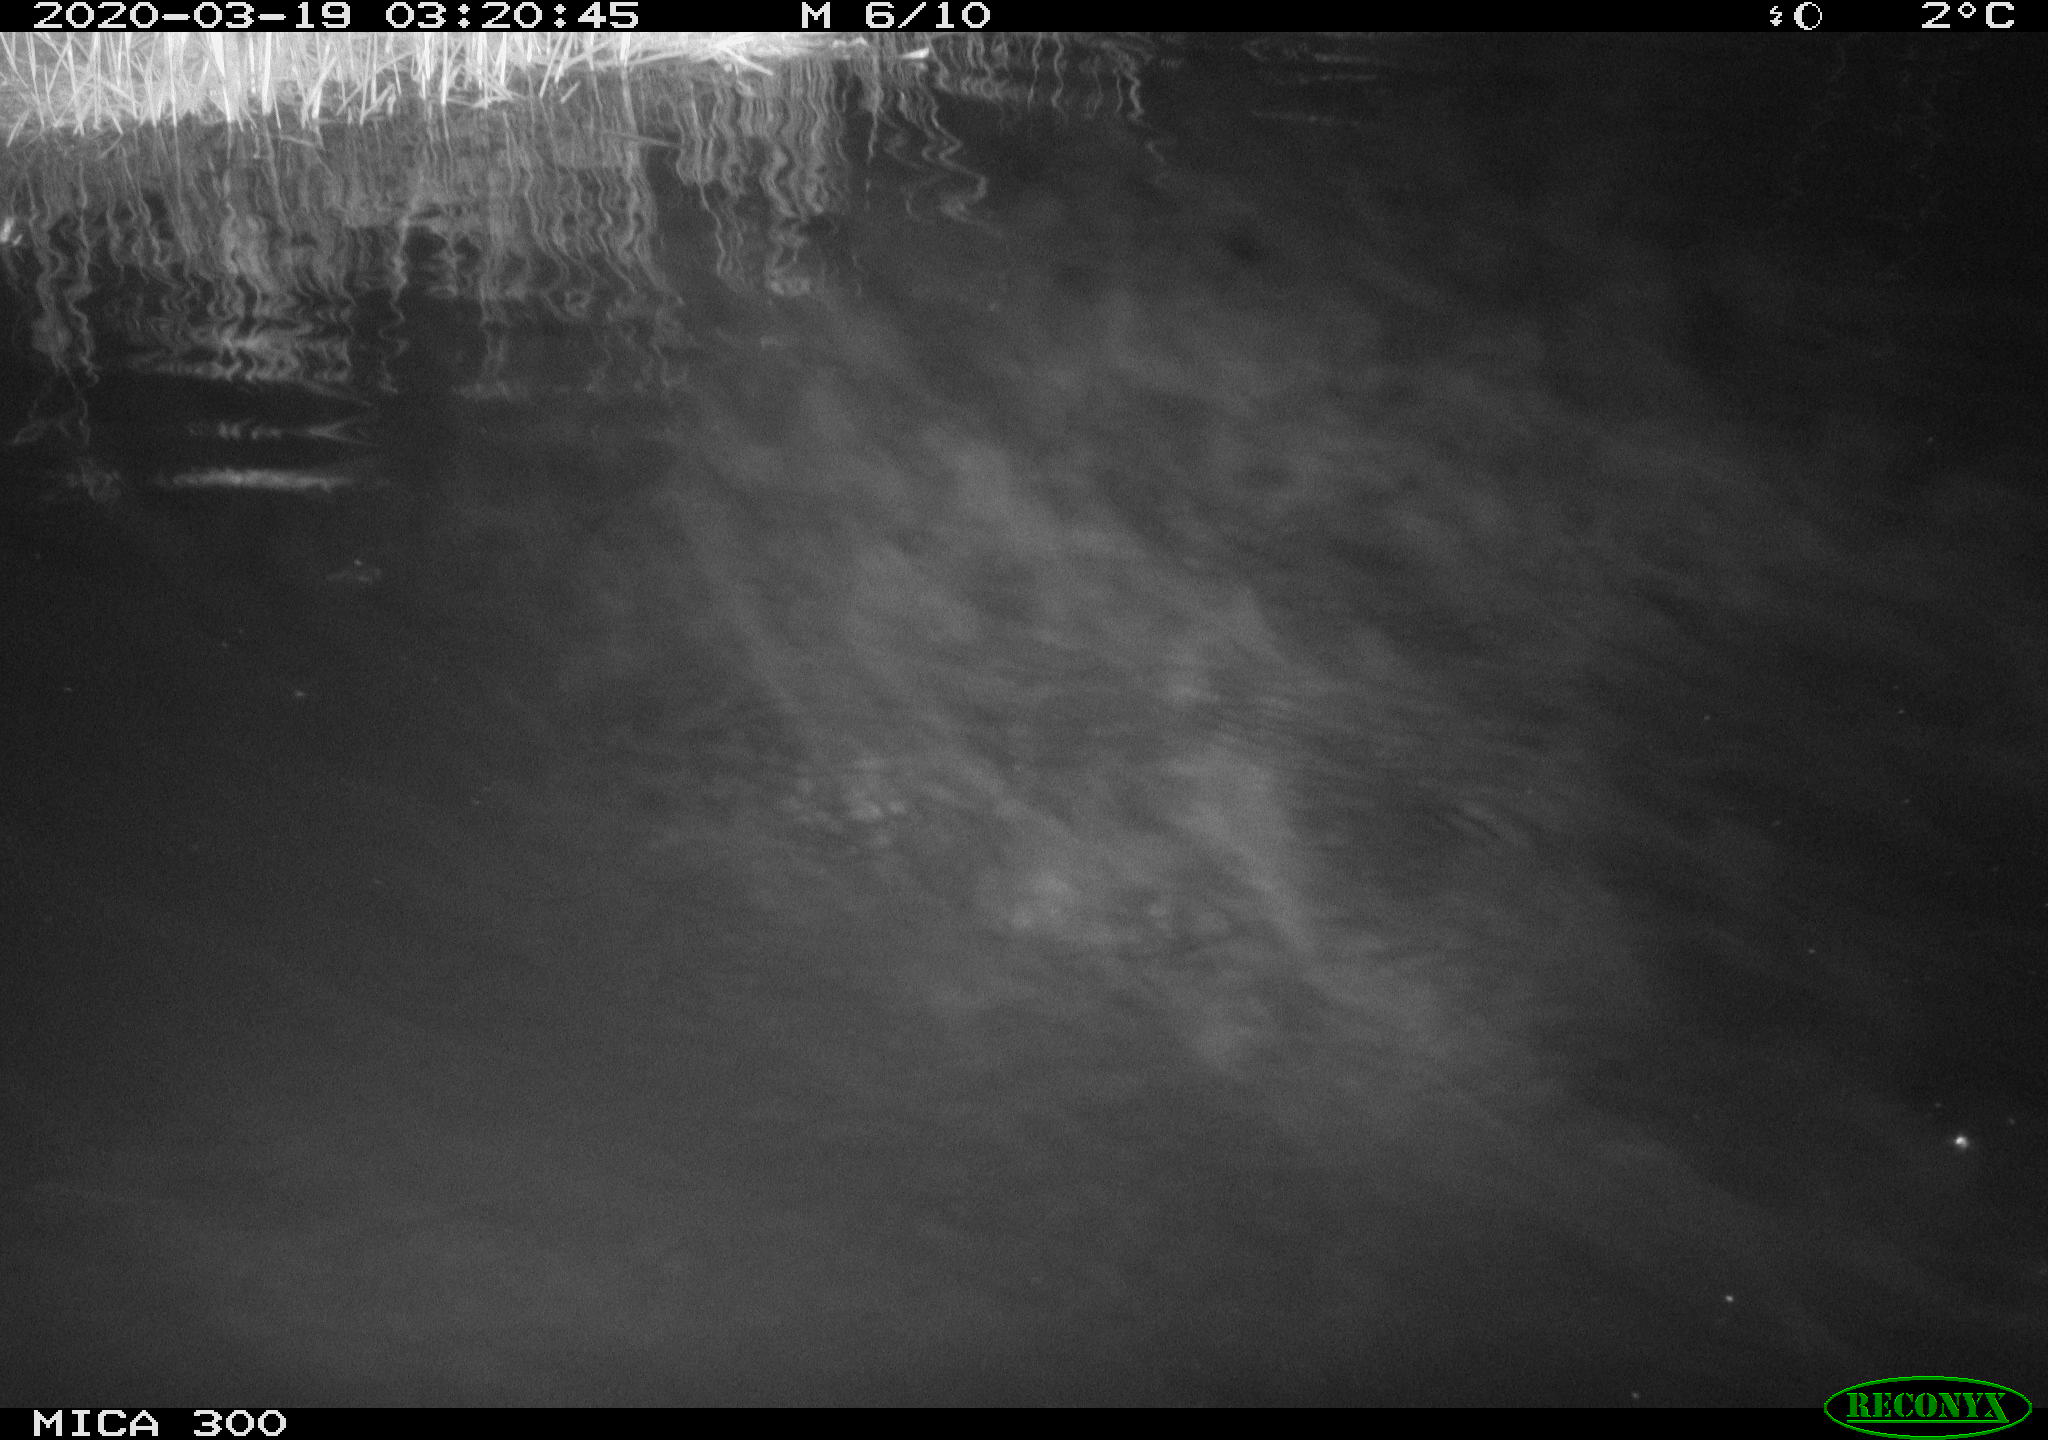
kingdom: Animalia
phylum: Chordata
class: Mammalia
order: Rodentia
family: Castoridae
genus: Castor
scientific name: Castor fiber
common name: Eurasian beaver
